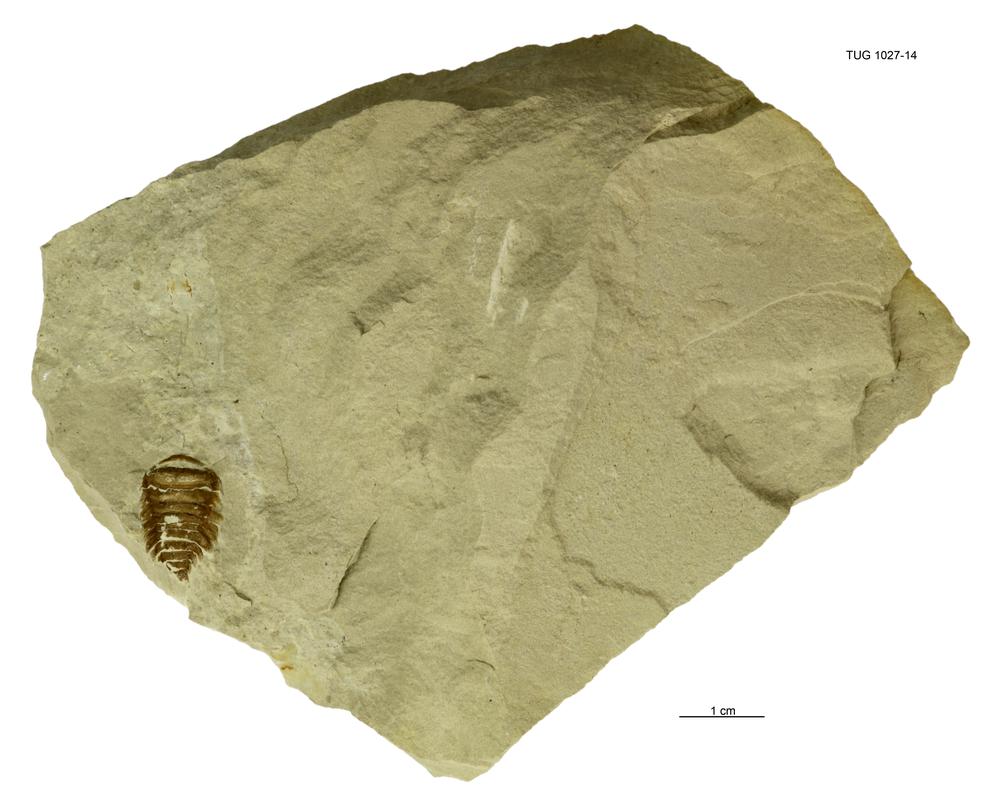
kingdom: Animalia
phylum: Cnidaria
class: Anthozoa
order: Actiniaria
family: Actiniidae
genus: Bunodes
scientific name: Bunodes
